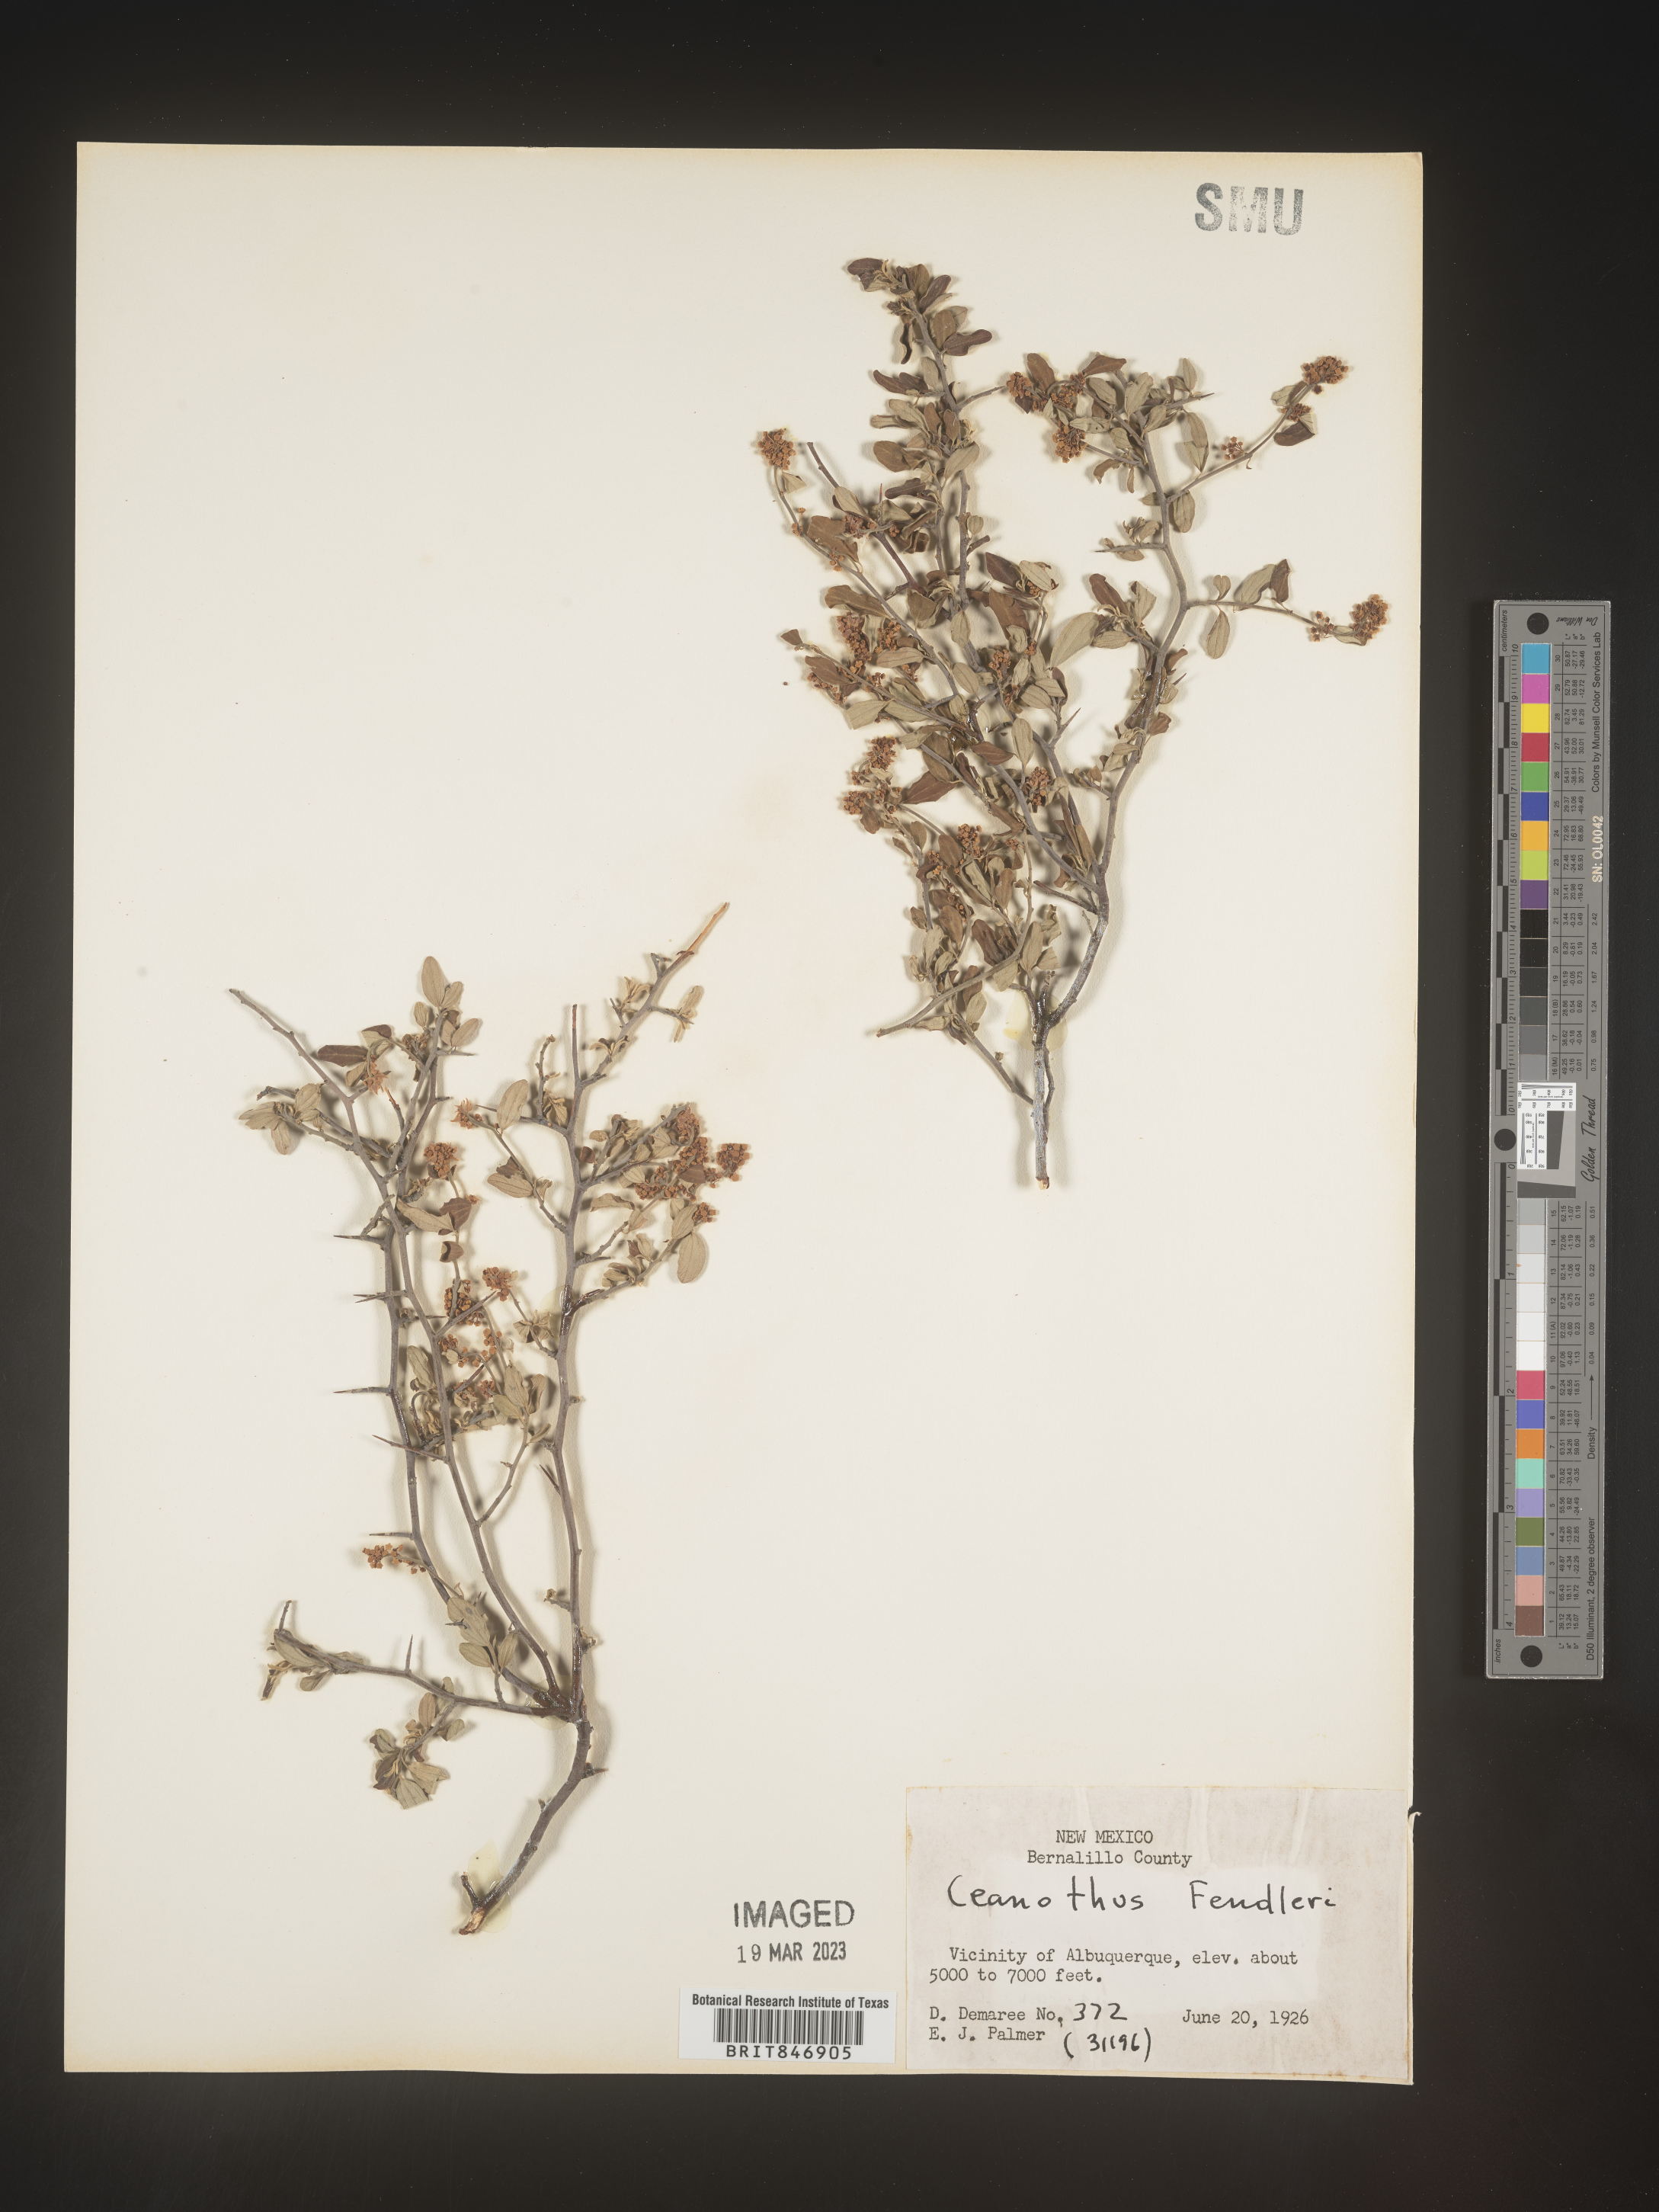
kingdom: Plantae
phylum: Tracheophyta
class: Magnoliopsida
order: Rosales
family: Rhamnaceae
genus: Ceanothus
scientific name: Ceanothus fendleri
